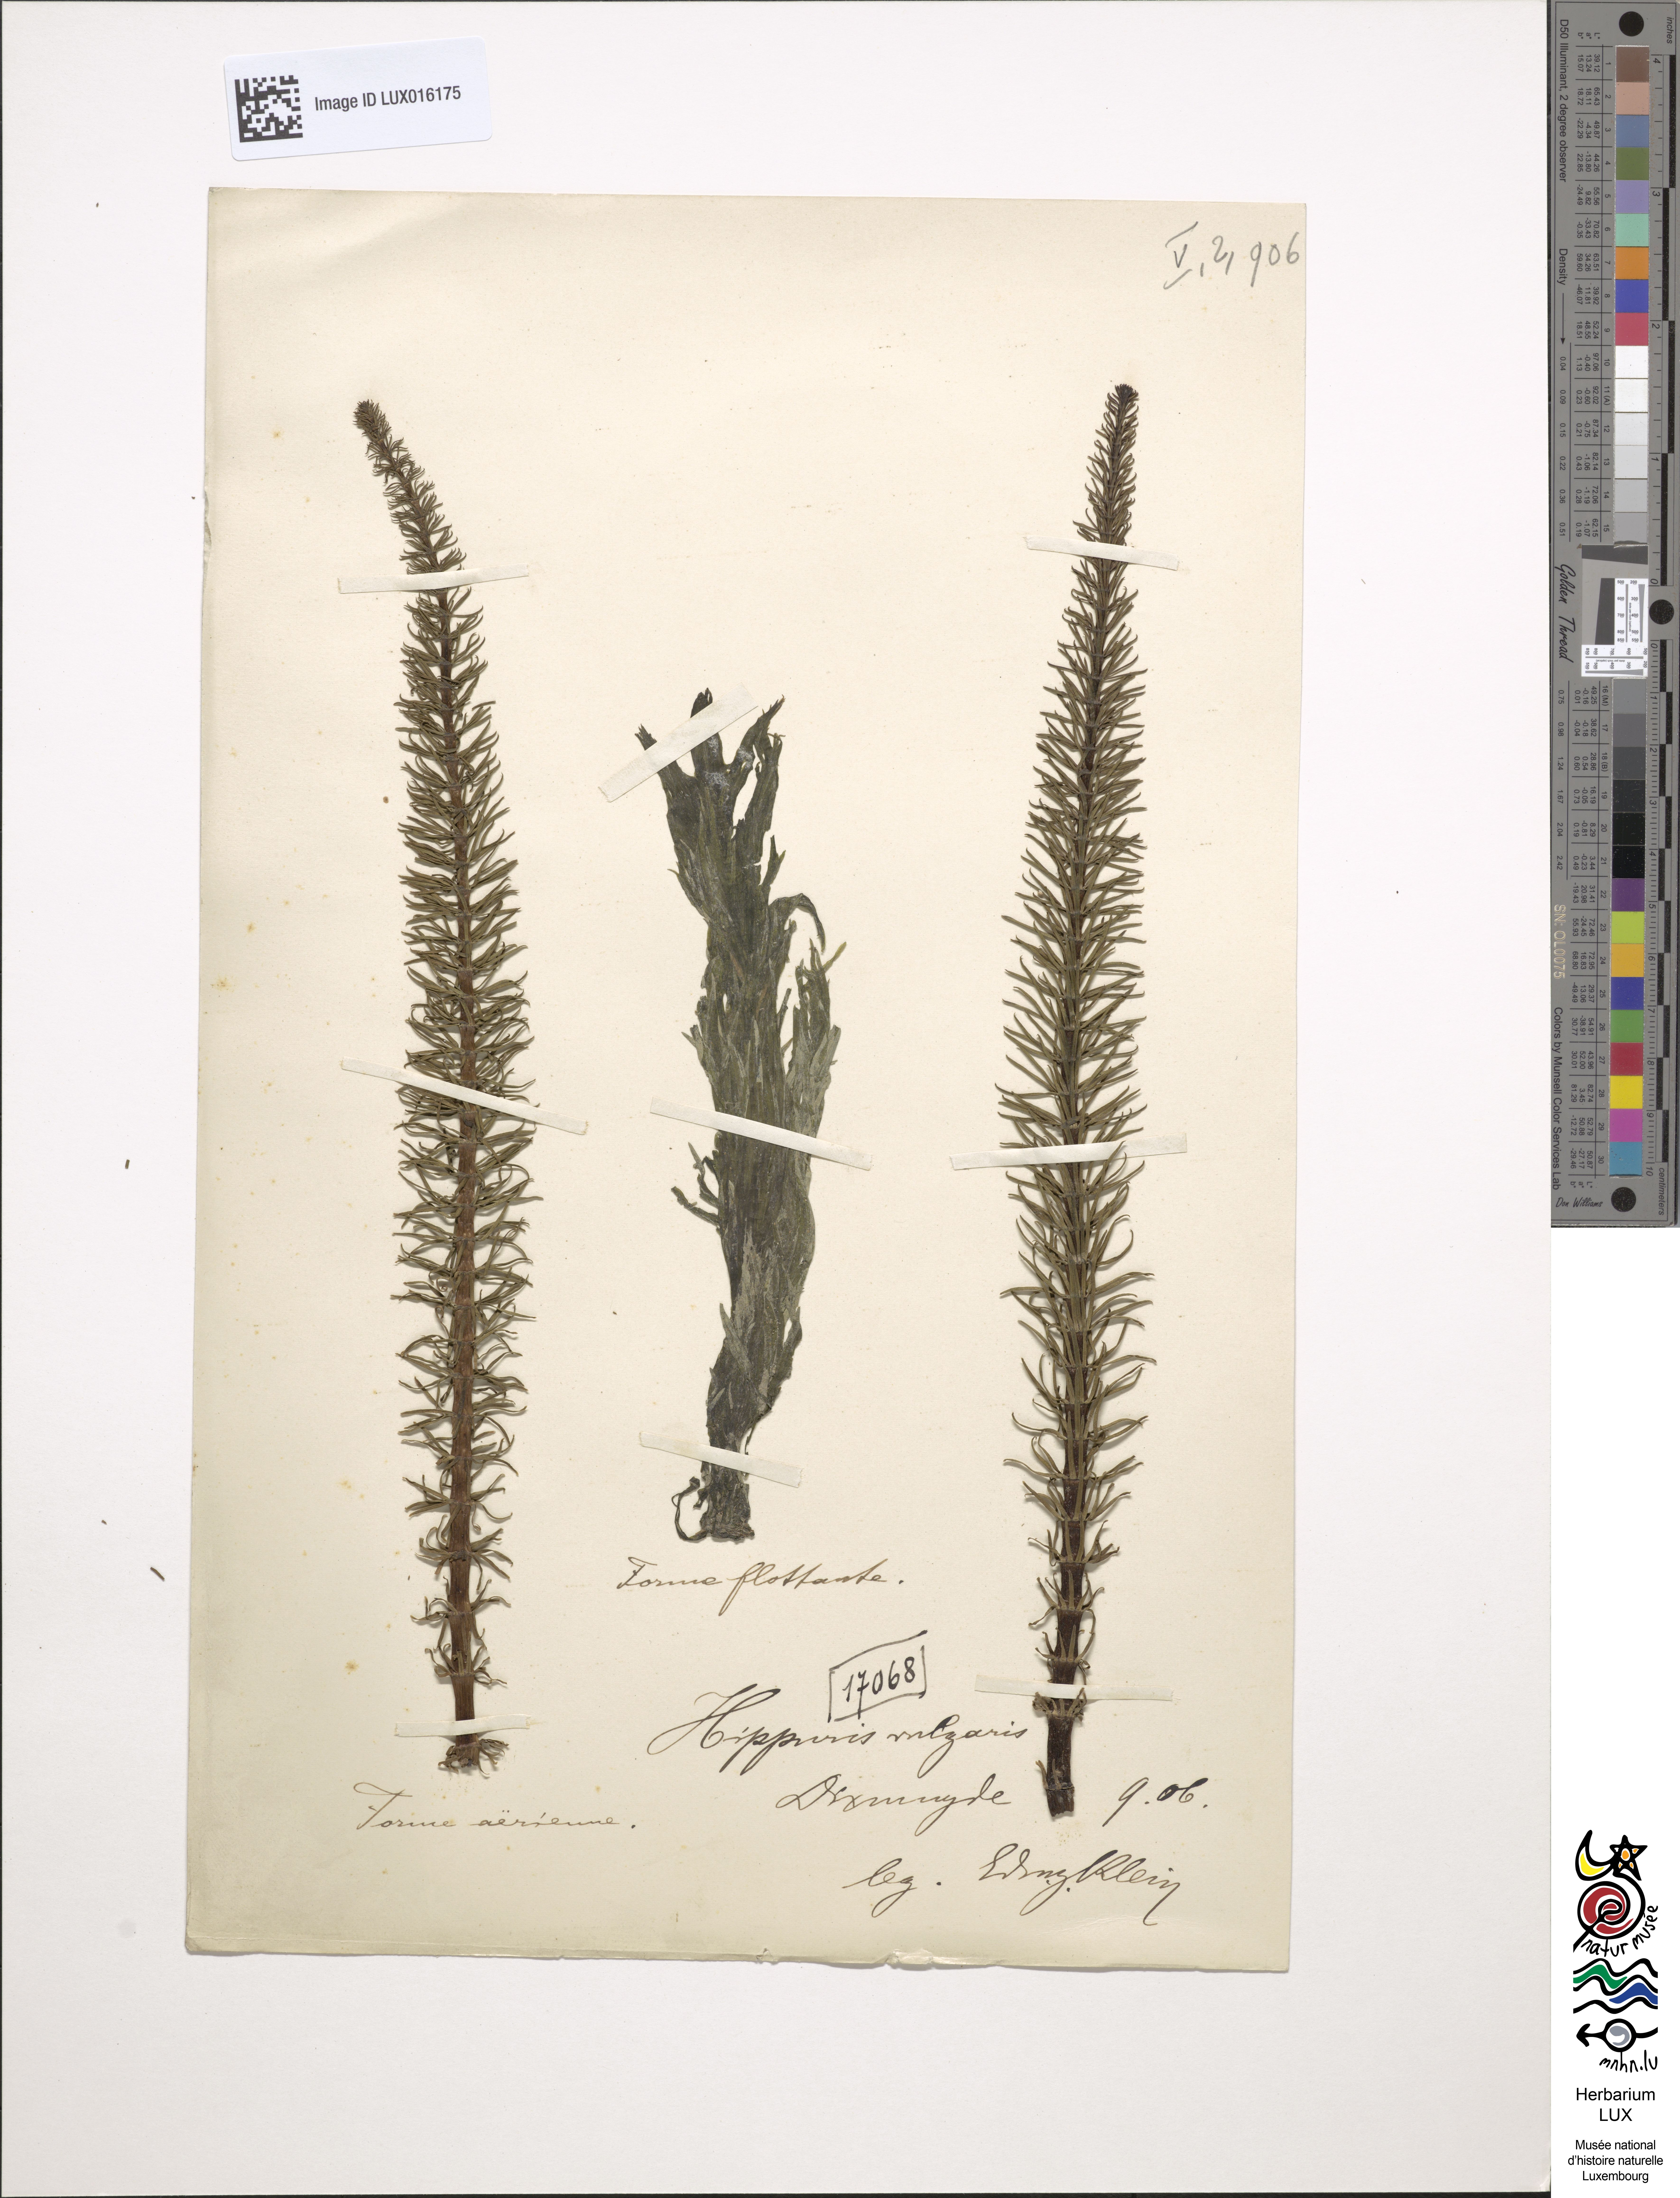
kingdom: Plantae
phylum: Tracheophyta
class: Magnoliopsida
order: Lamiales
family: Plantaginaceae
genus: Hippuris
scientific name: Hippuris vulgaris
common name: Mare's-tail
